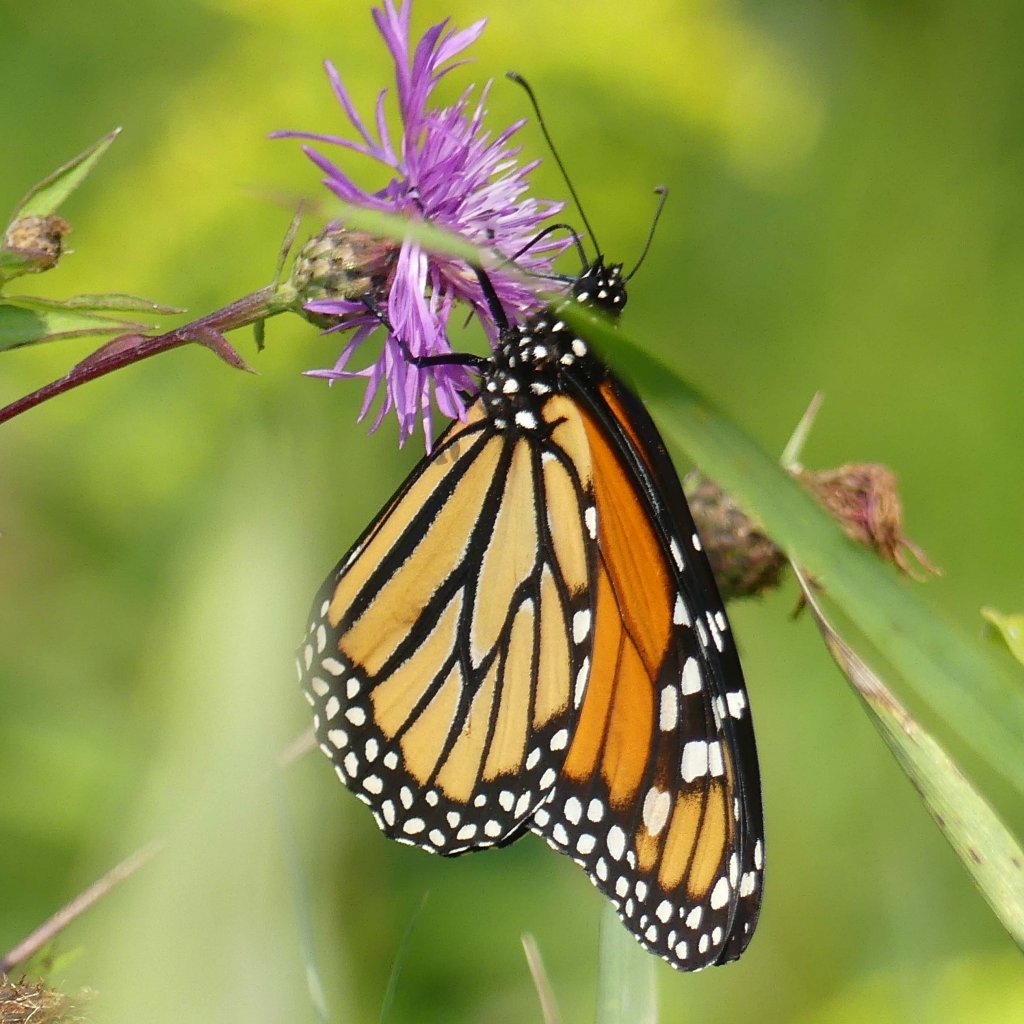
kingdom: Animalia
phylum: Arthropoda
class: Insecta
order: Lepidoptera
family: Nymphalidae
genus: Danaus
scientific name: Danaus plexippus
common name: Monarch
